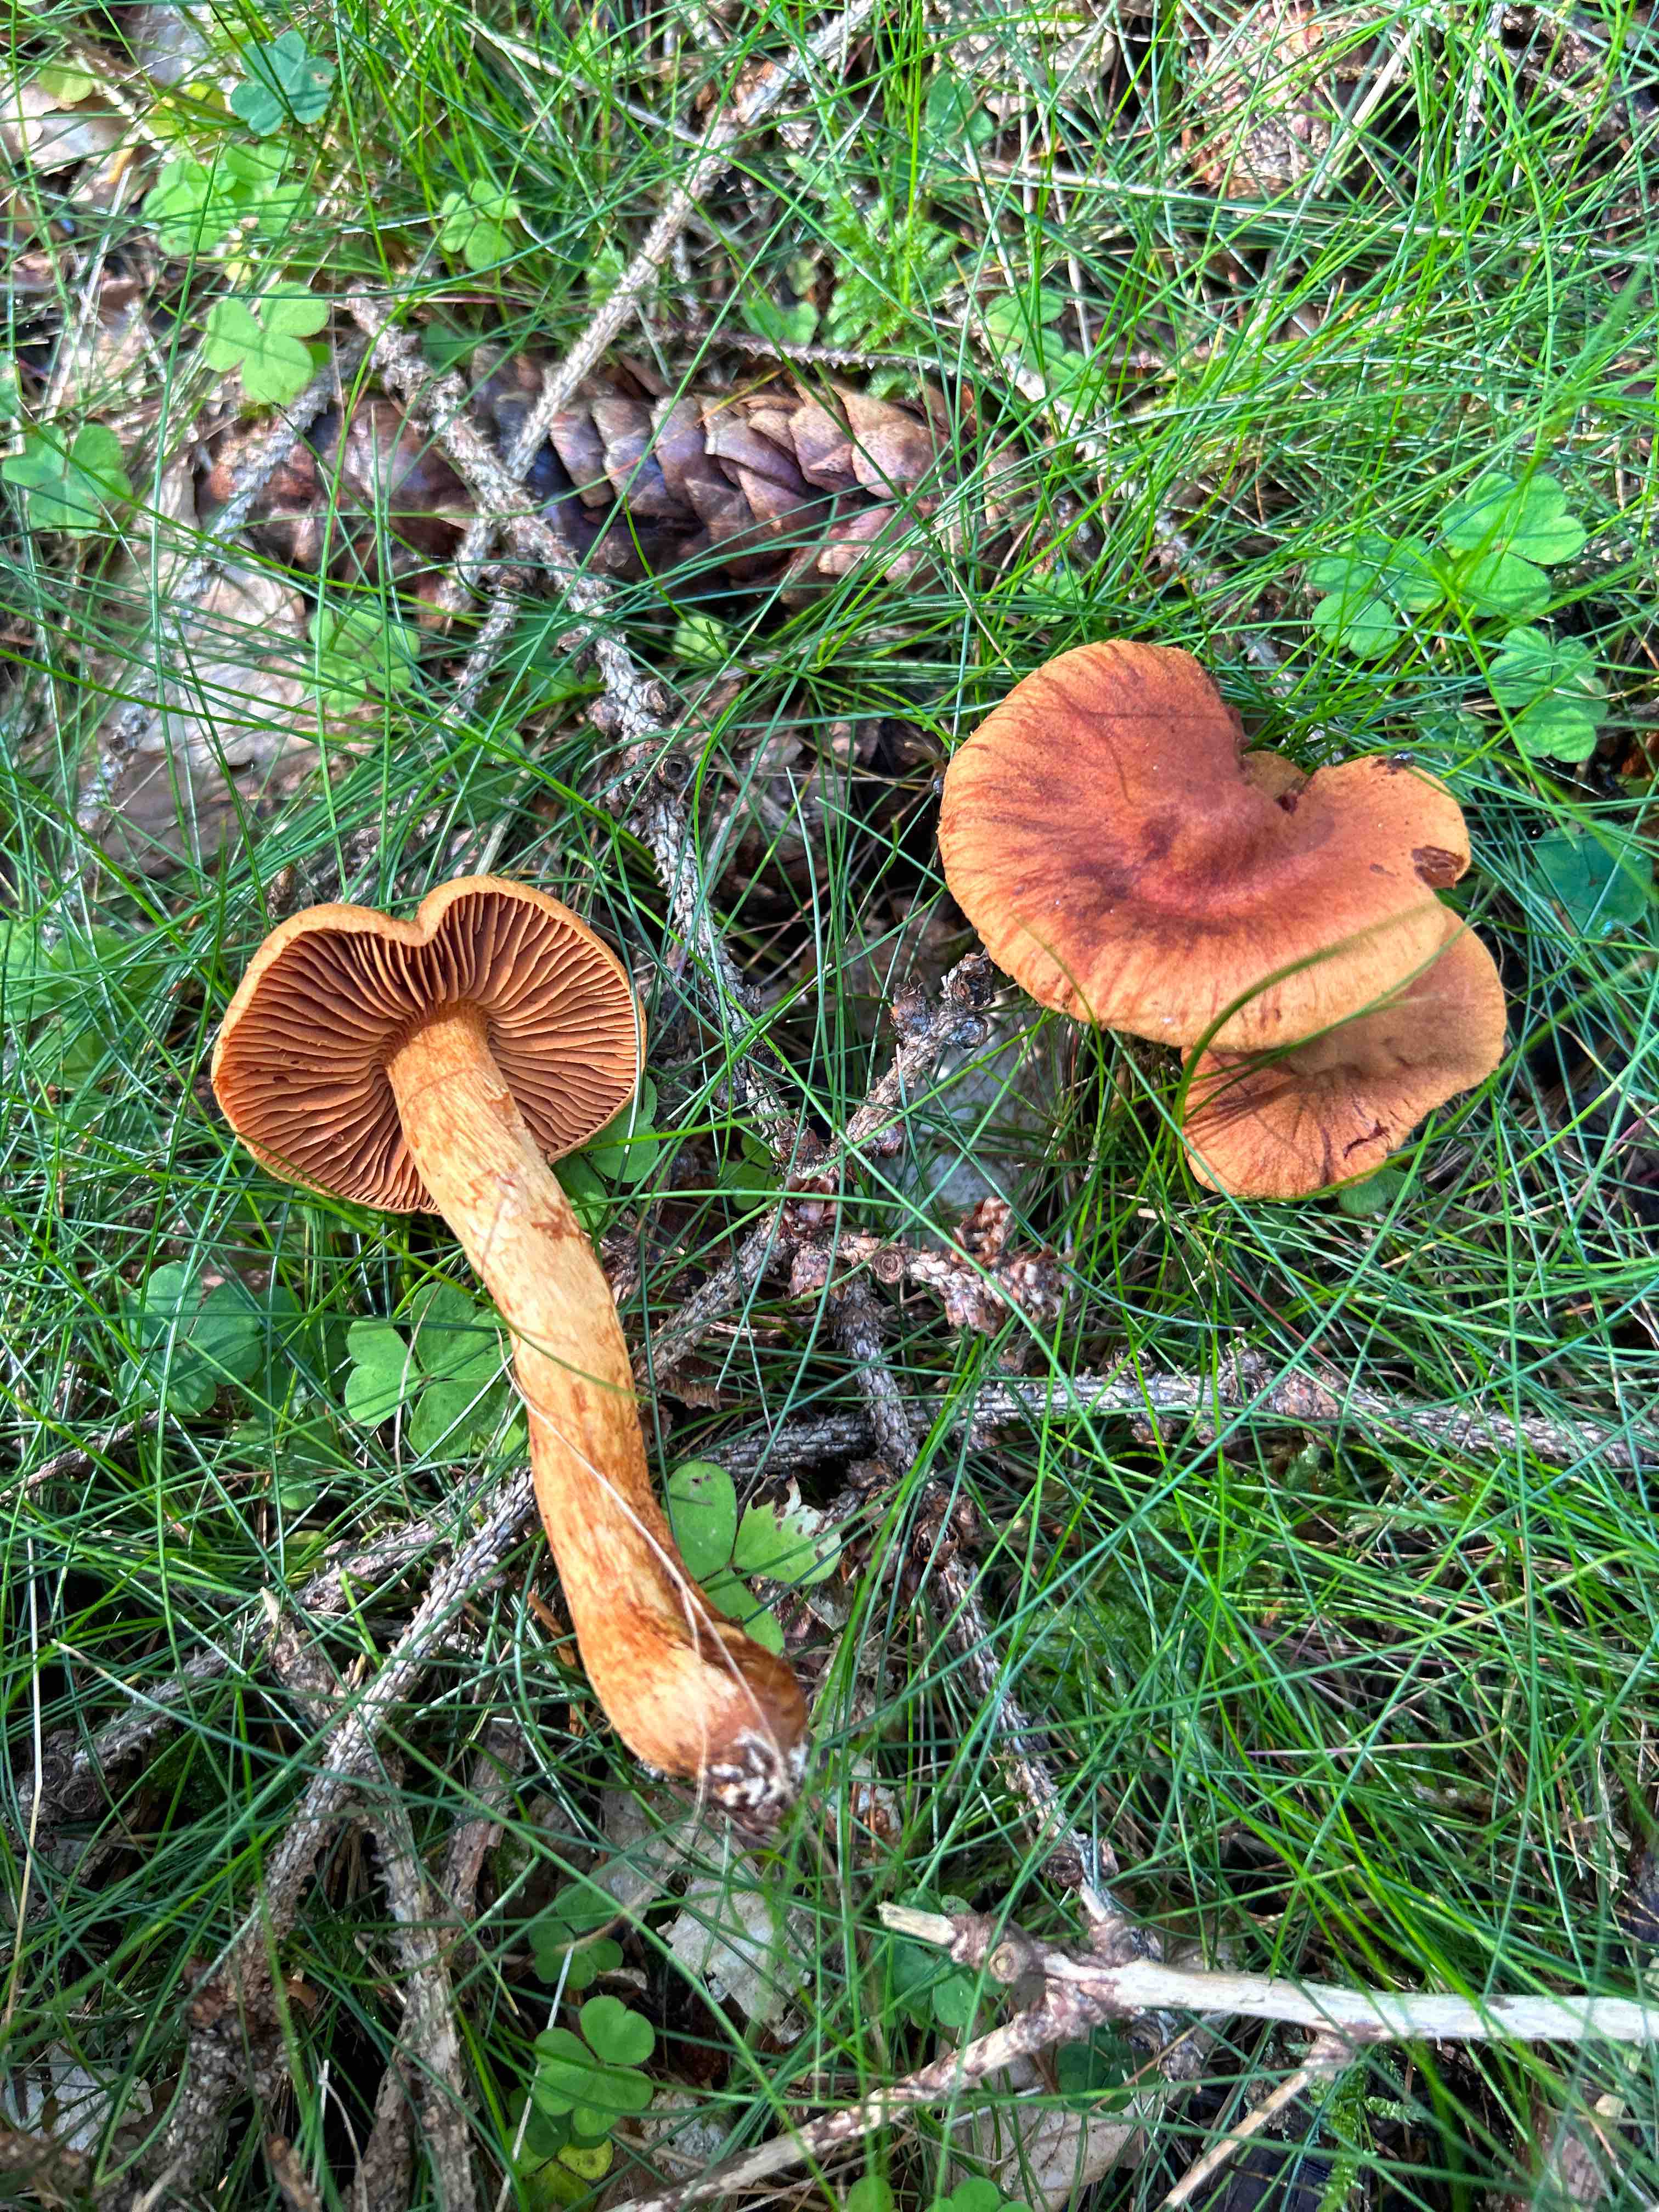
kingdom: Fungi
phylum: Basidiomycota
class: Agaricomycetes
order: Agaricales
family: Cortinariaceae
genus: Cortinarius
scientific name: Cortinarius rubellus
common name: puklet gift-slørhat
